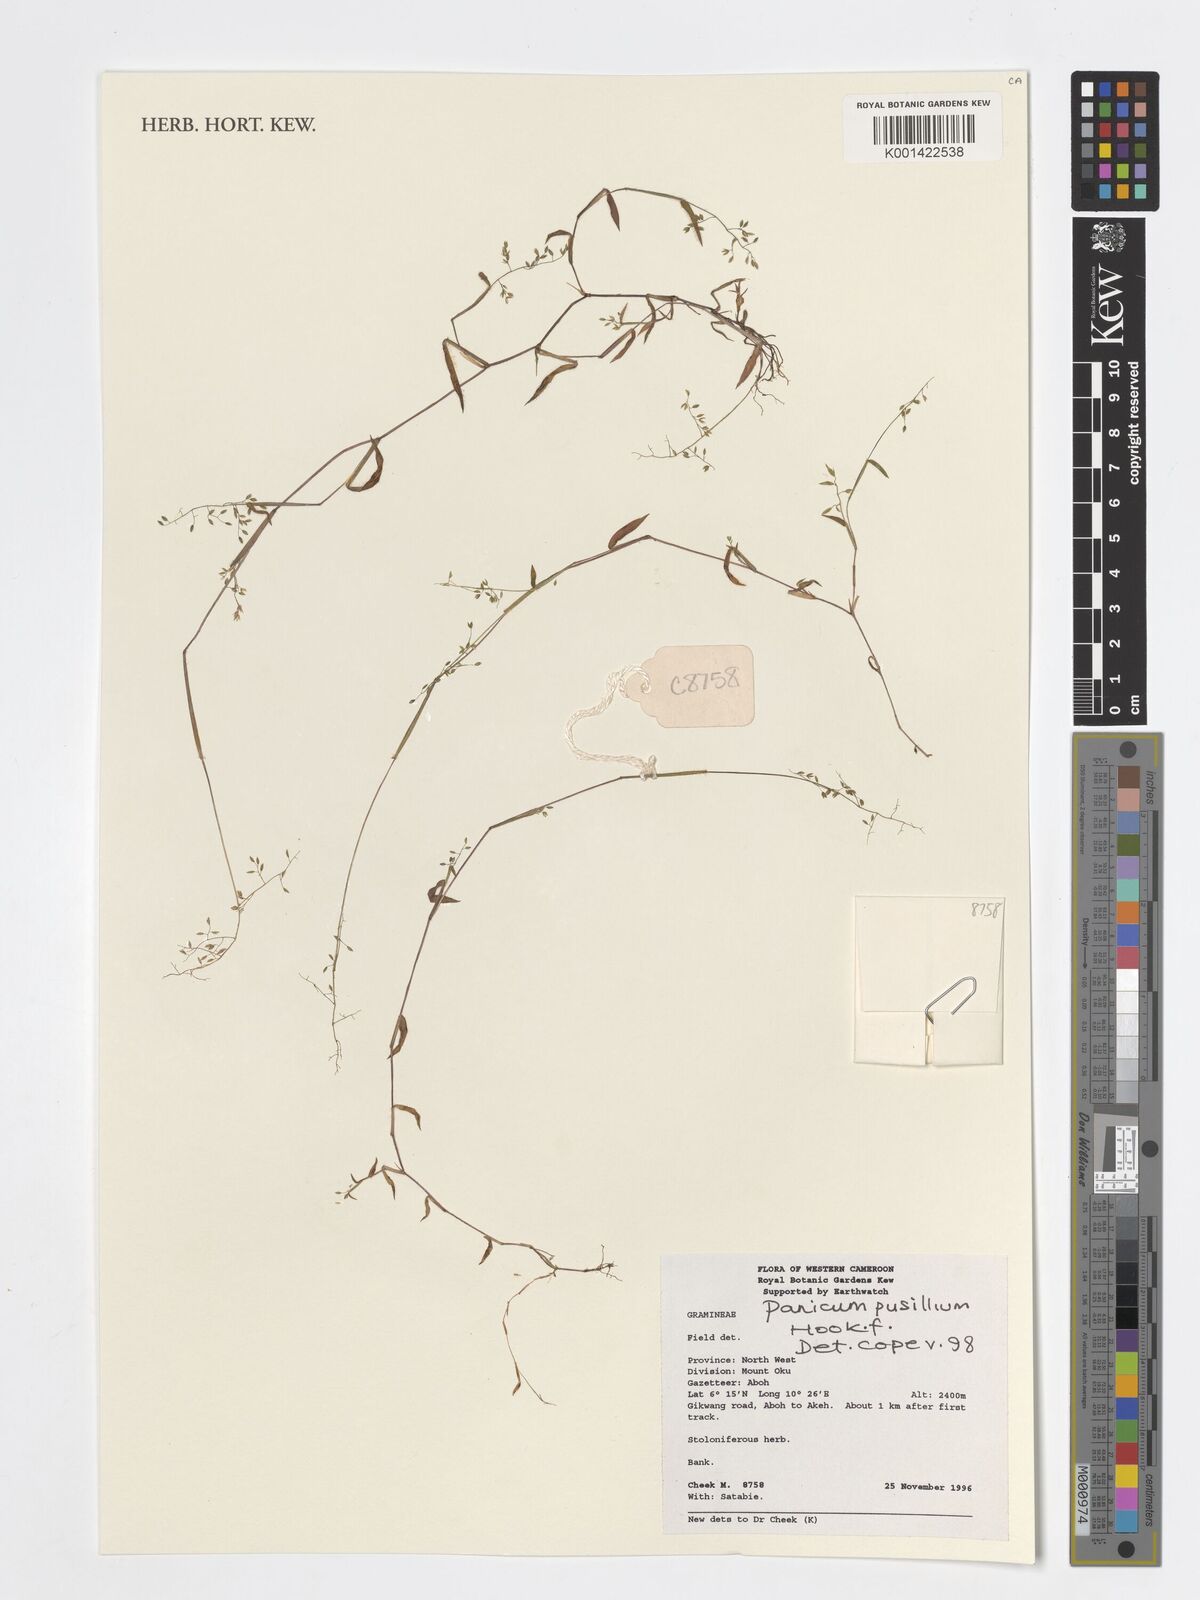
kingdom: Plantae
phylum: Tracheophyta
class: Liliopsida
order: Poales
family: Poaceae
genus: Panicum
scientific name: Panicum pusillum
